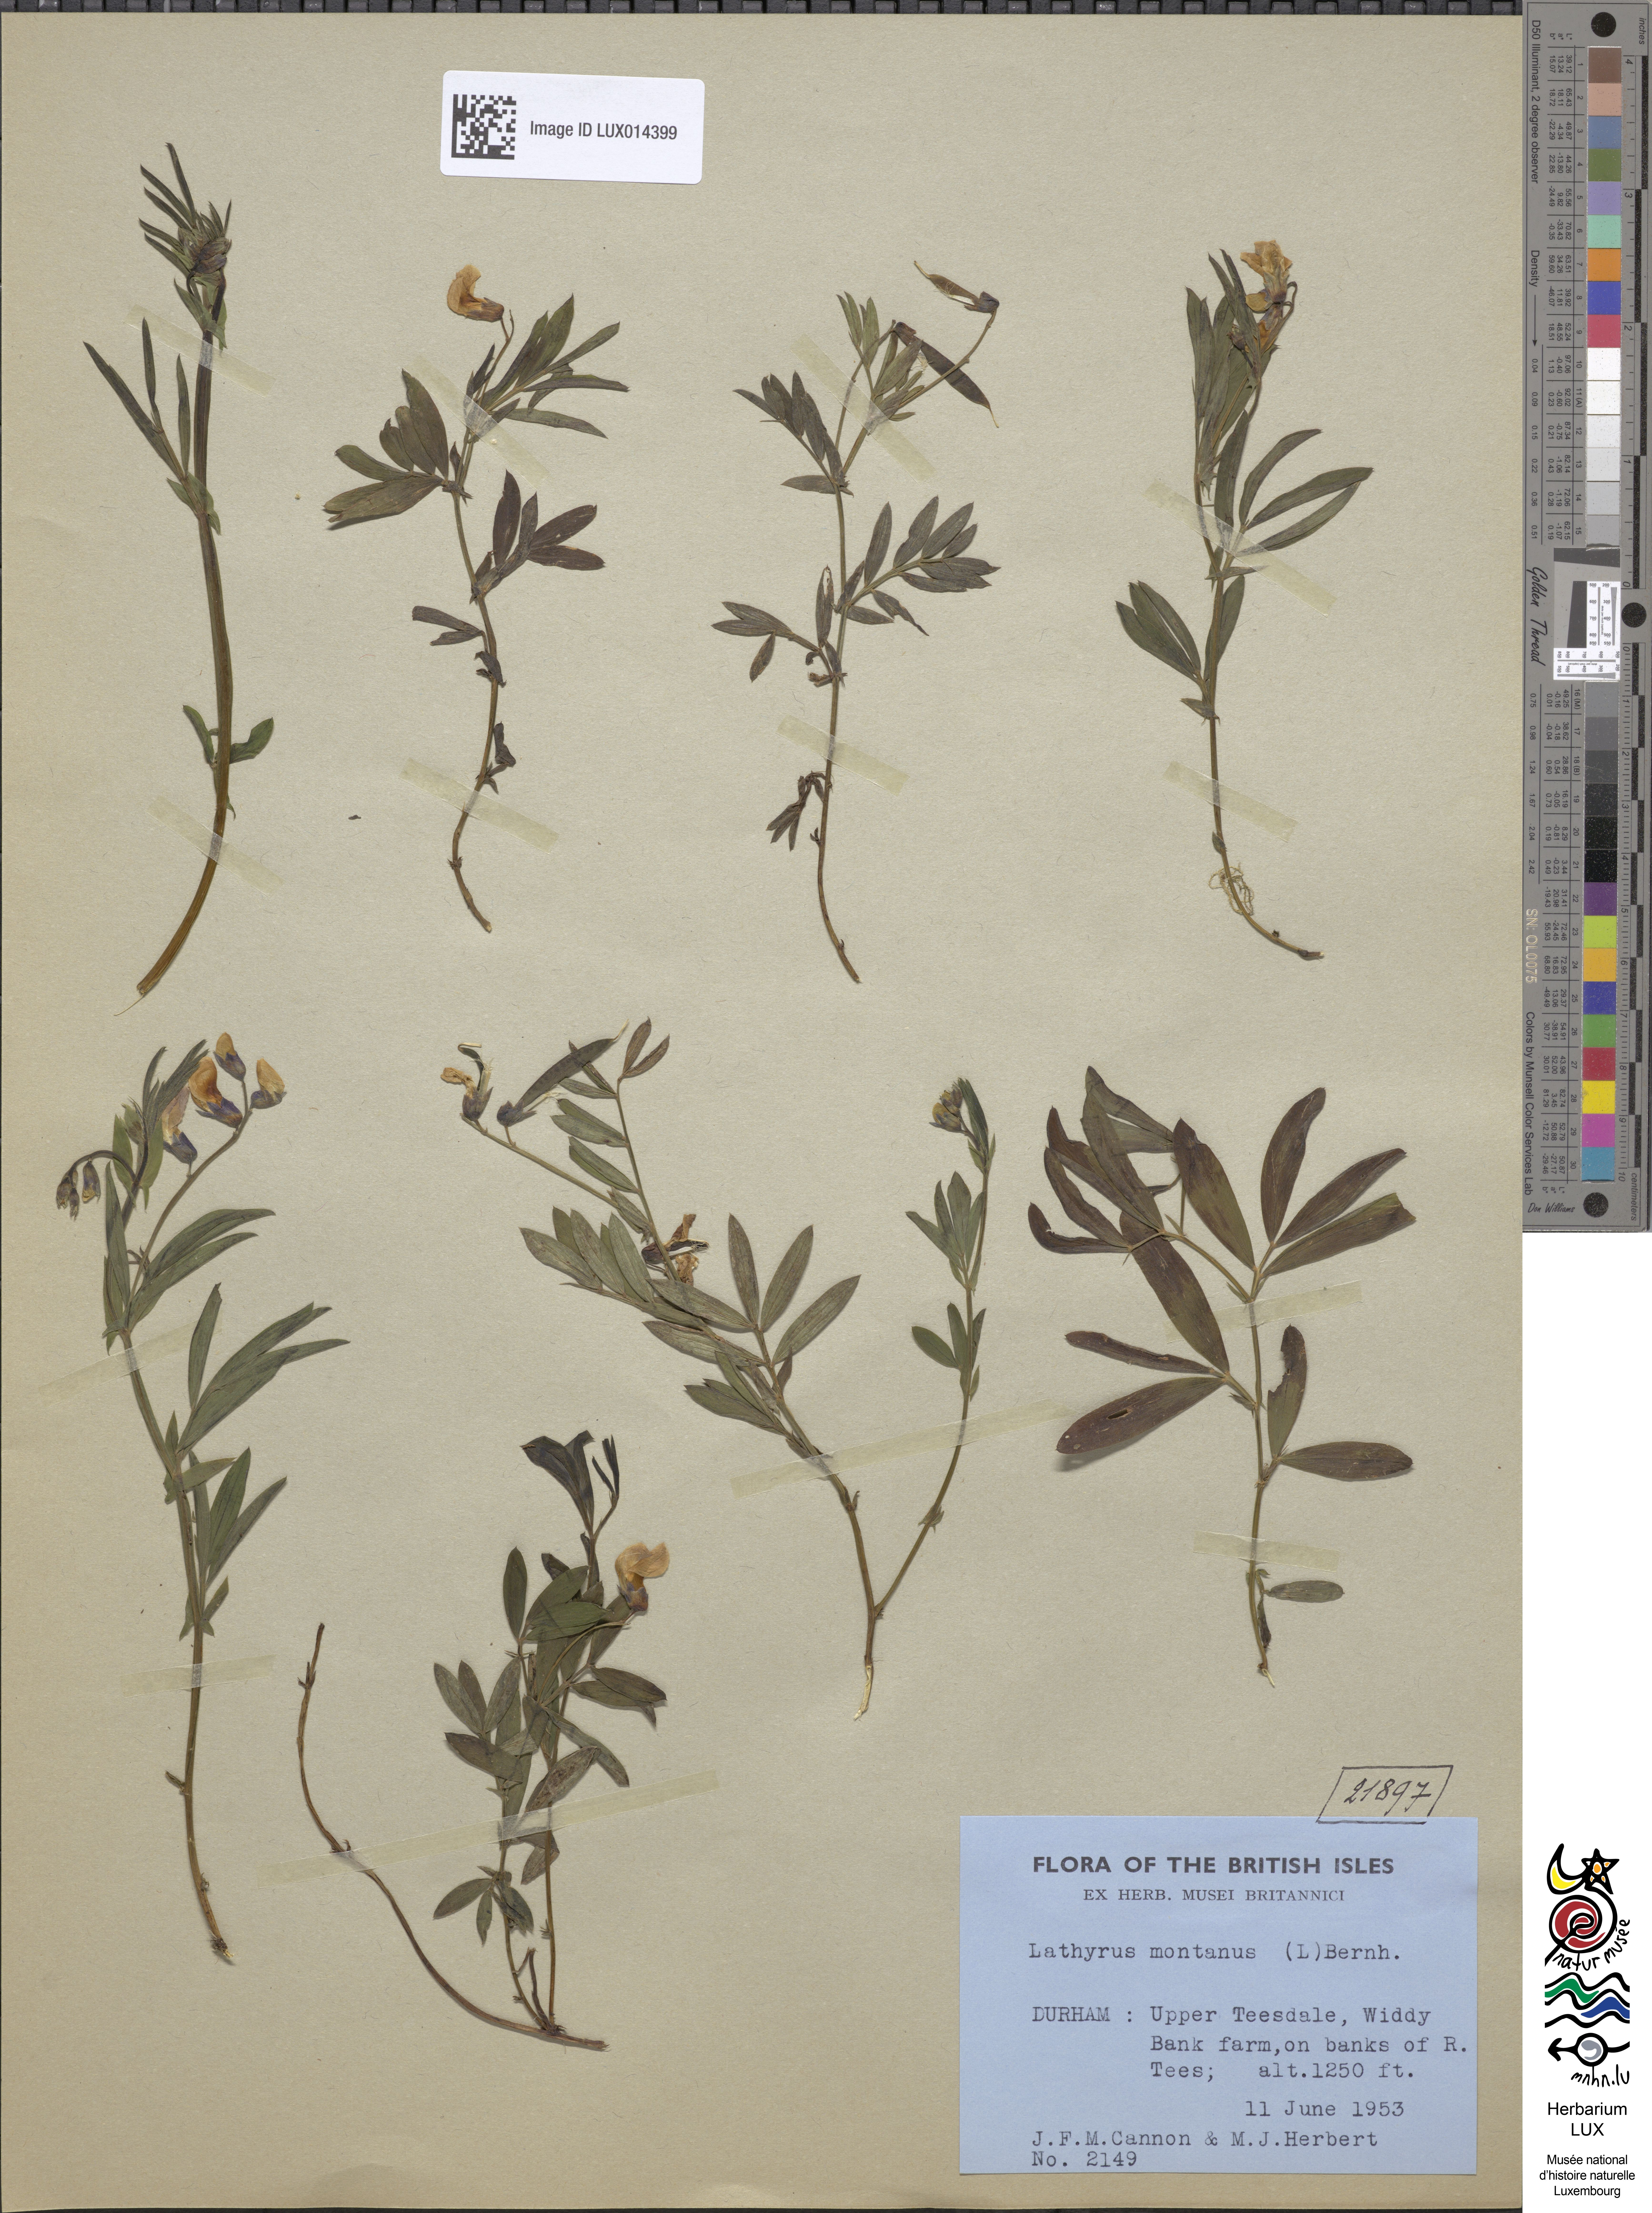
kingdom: Plantae
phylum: Tracheophyta
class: Magnoliopsida
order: Fabales
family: Fabaceae
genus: Lathyrus
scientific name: Lathyrus linifolius
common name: Bitter-vetch
